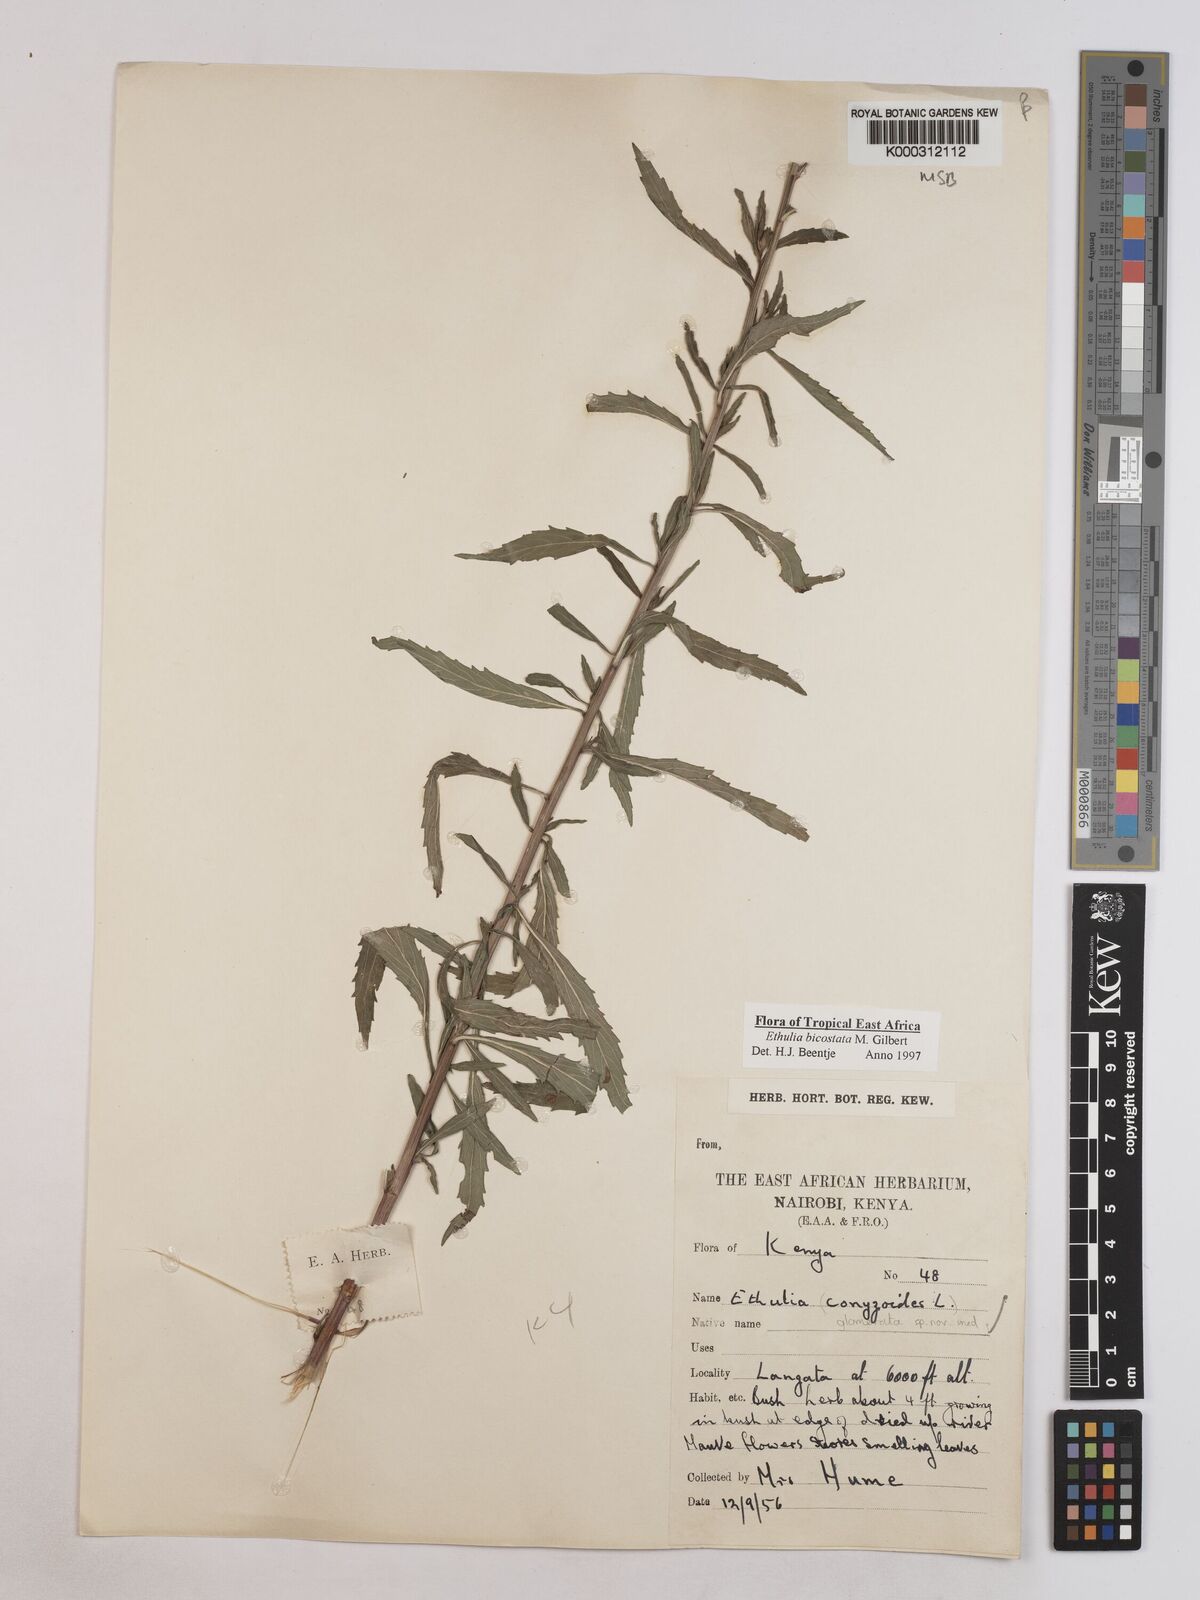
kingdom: Plantae
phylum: Tracheophyta
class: Magnoliopsida
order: Asterales
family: Asteraceae
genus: Ethulia
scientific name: Ethulia bicostata
